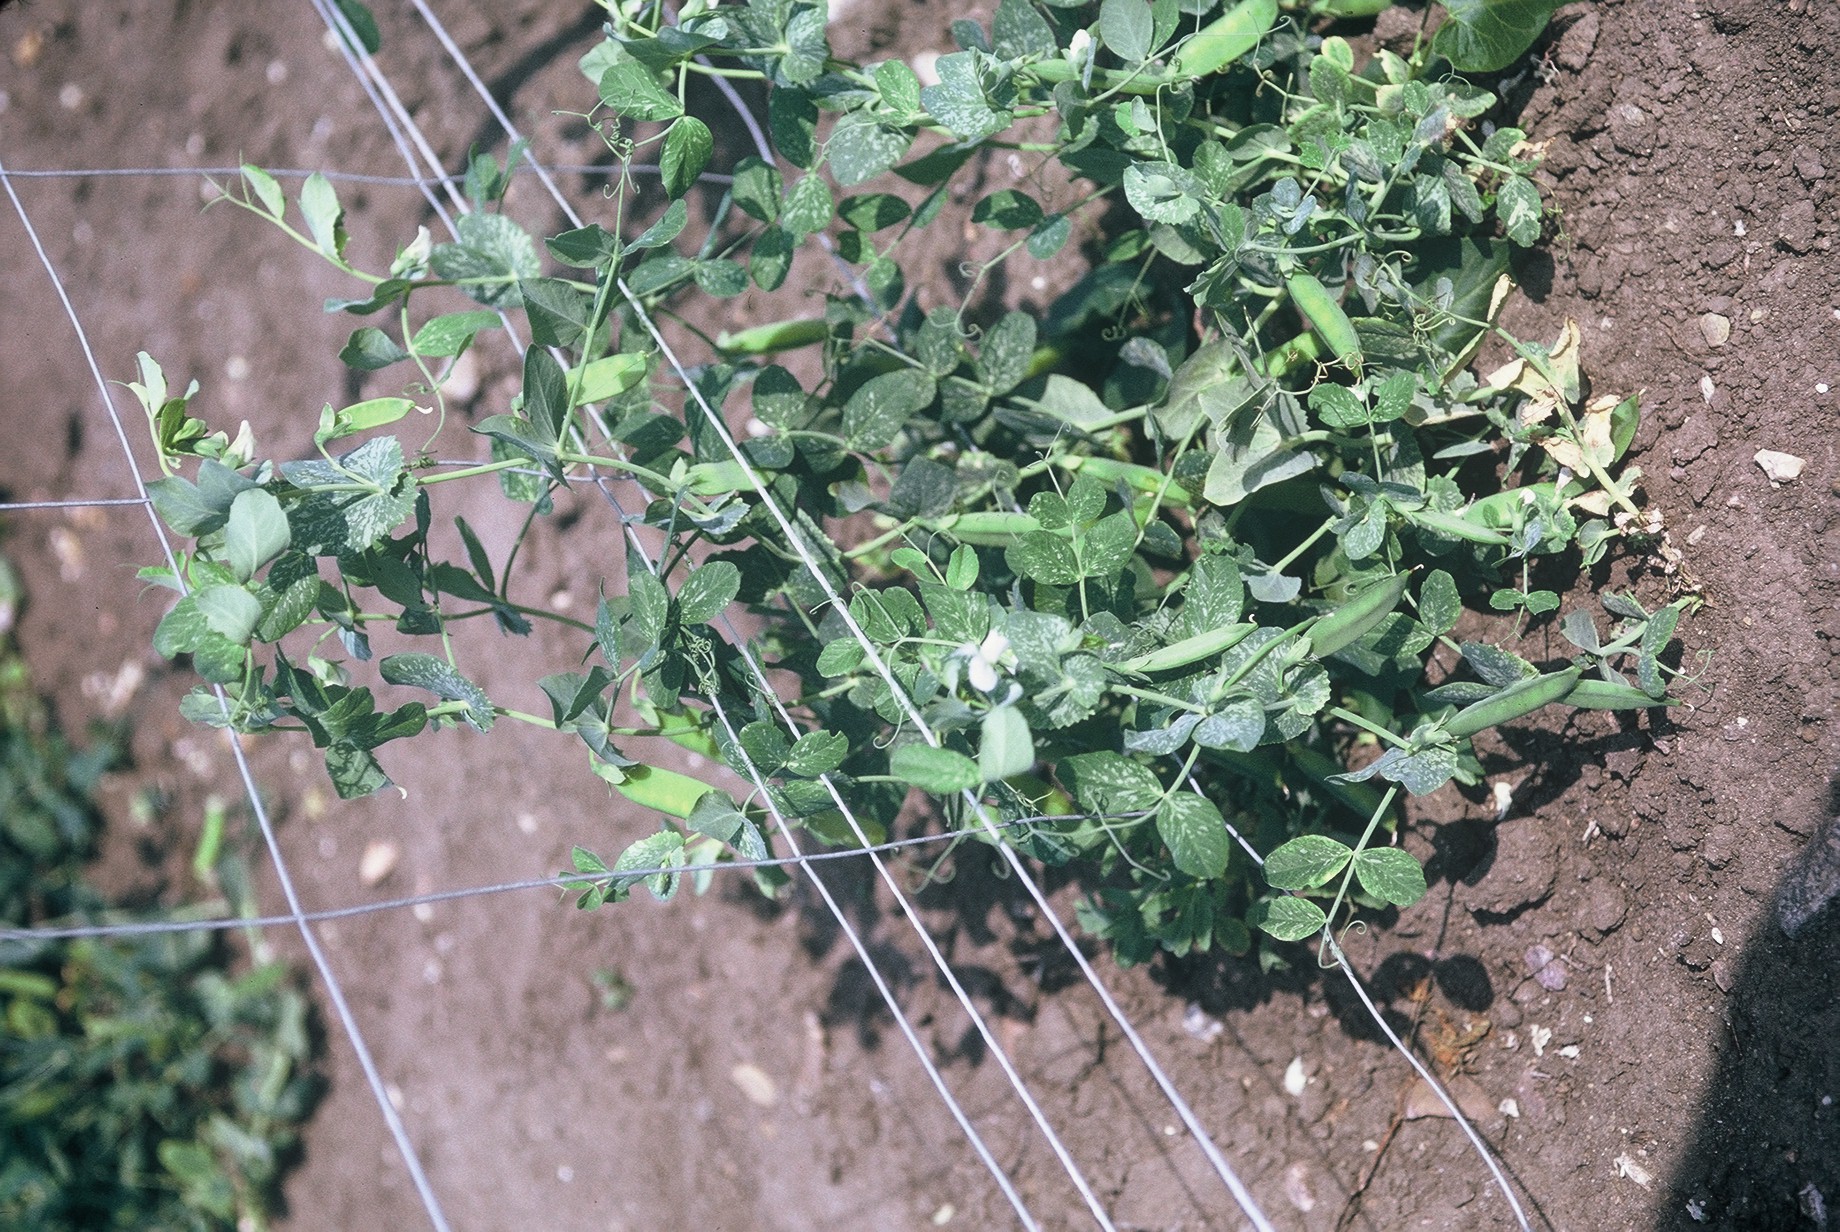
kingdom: Plantae
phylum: Tracheophyta
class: Magnoliopsida
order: Fabales
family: Fabaceae
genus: Lathyrus
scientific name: Lathyrus oleraceus
